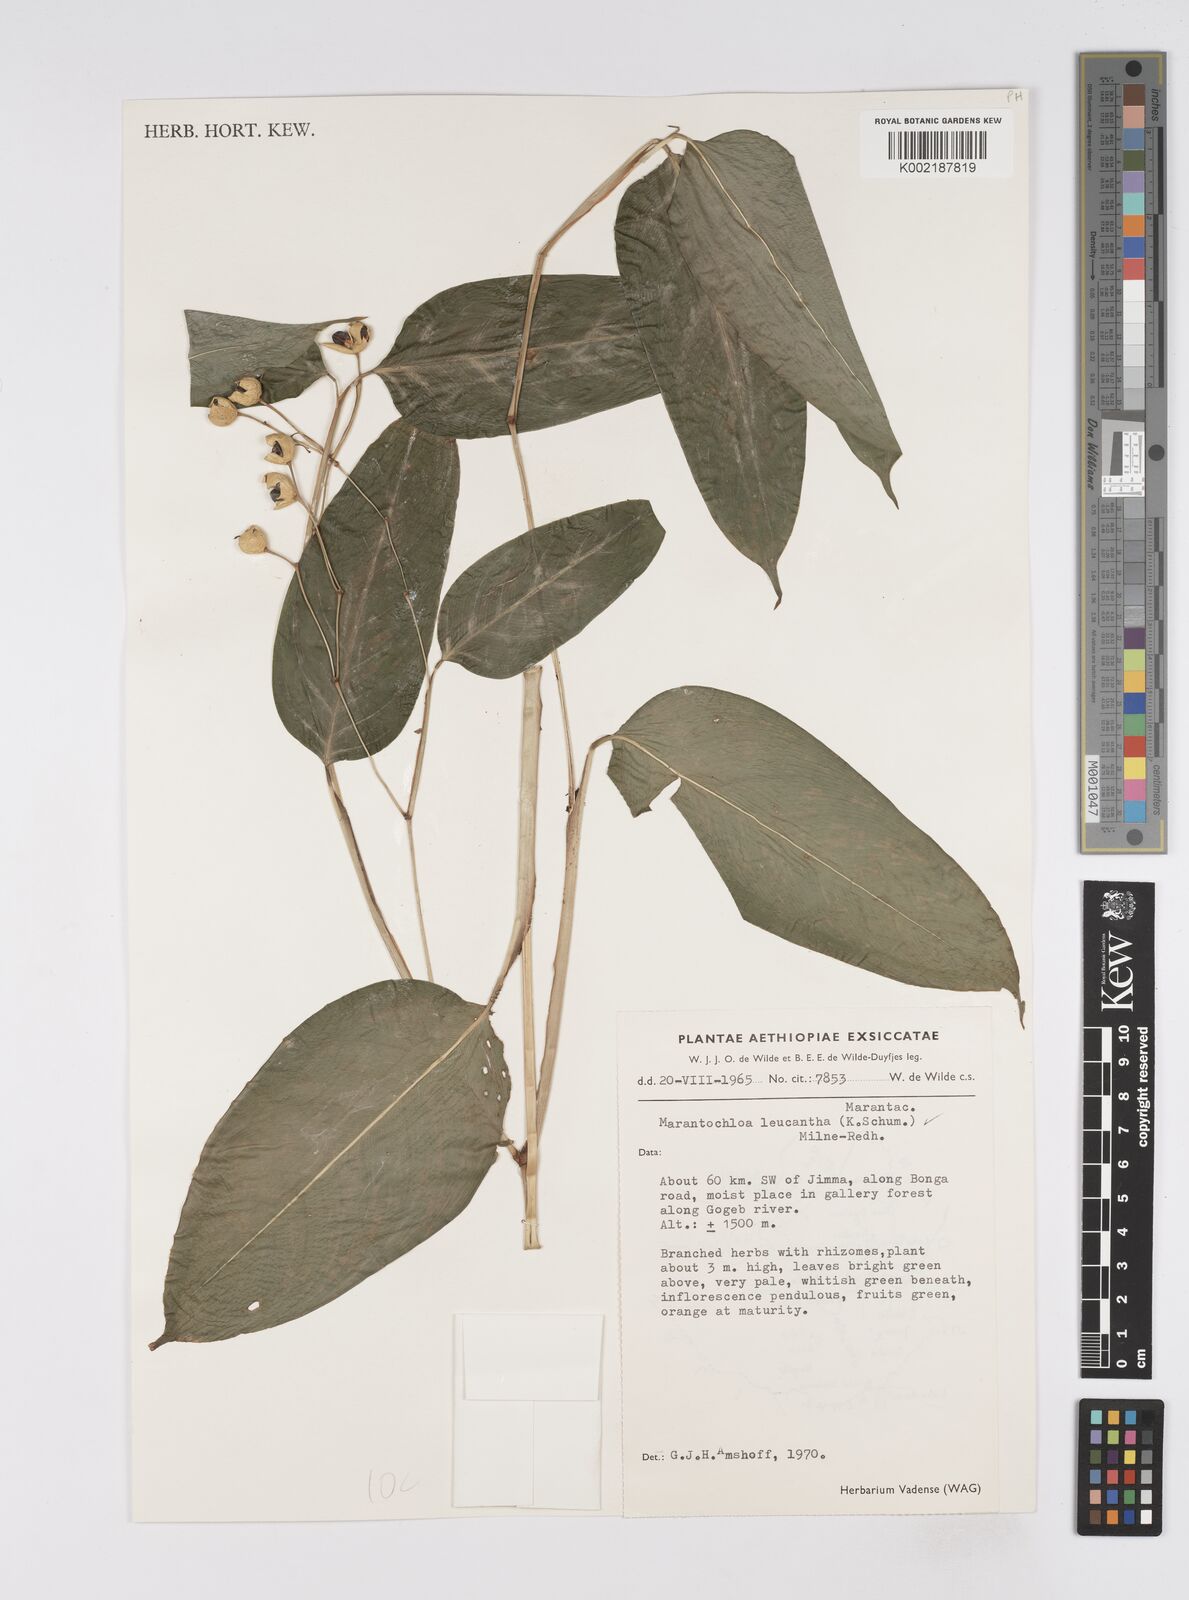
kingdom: Plantae
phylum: Tracheophyta
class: Liliopsida
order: Zingiberales
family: Marantaceae
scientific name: Marantaceae
